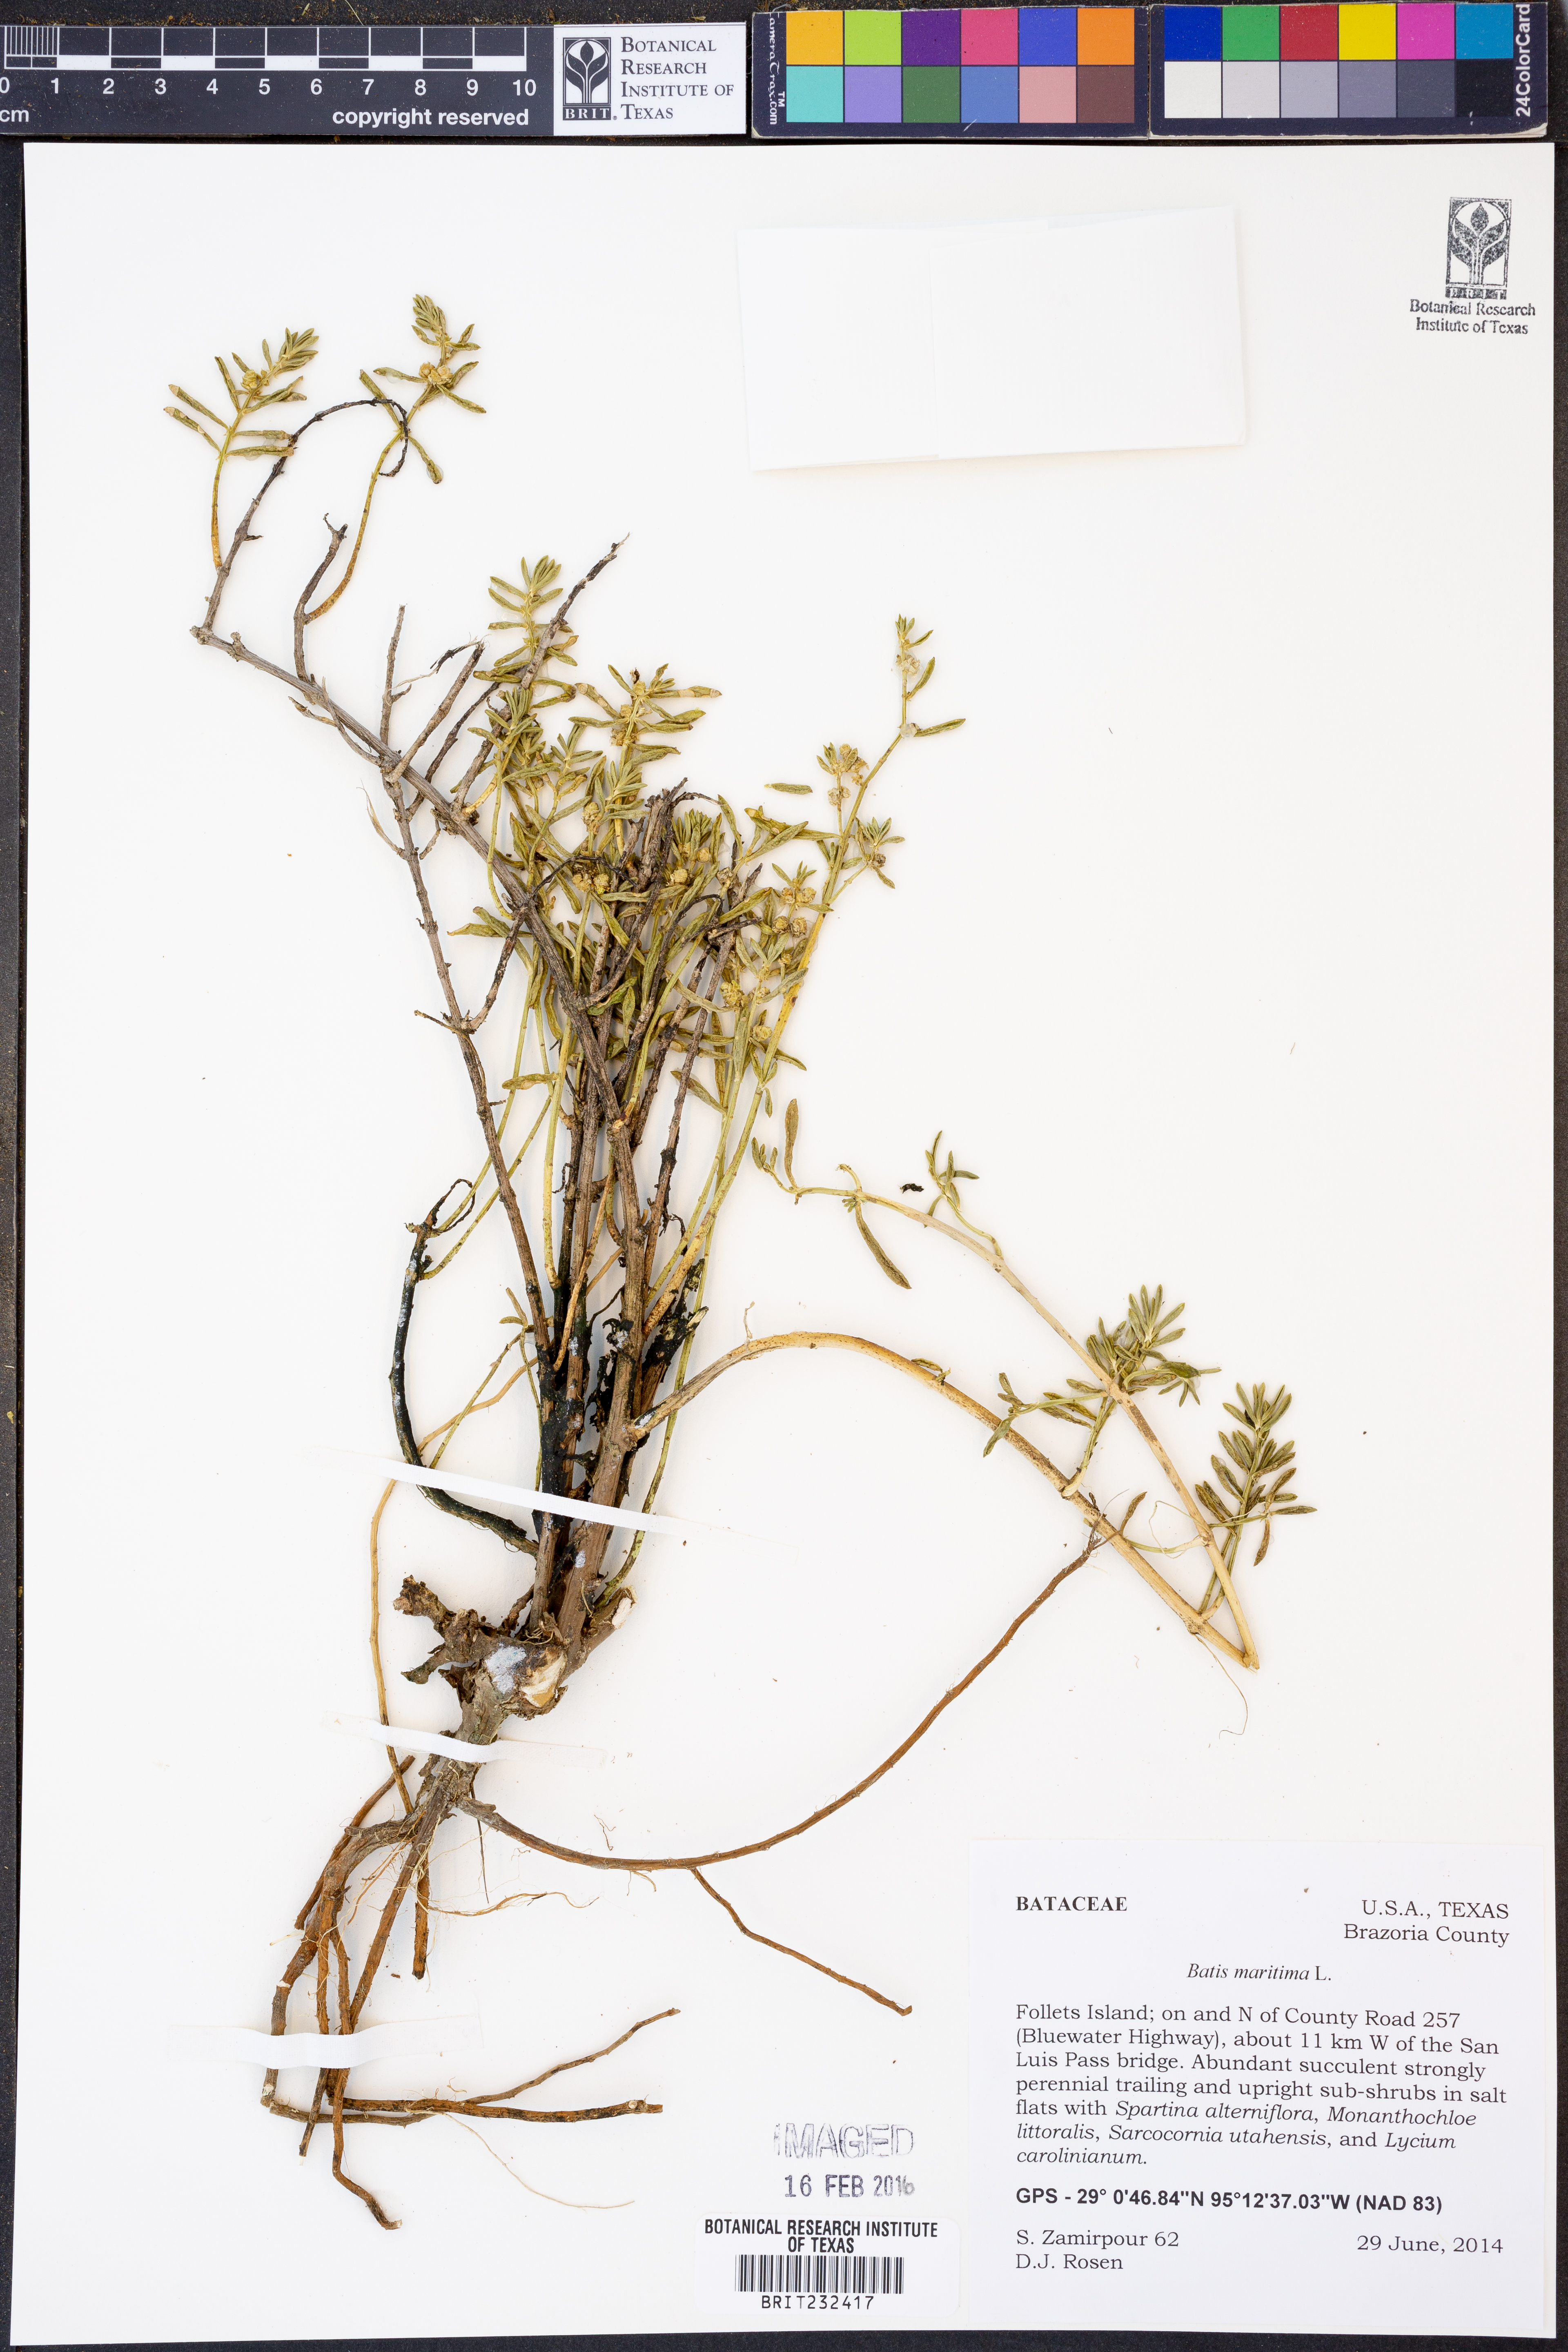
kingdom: Plantae
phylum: Tracheophyta
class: Magnoliopsida
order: Brassicales
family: Bataceae
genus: Batis
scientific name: Batis maritima
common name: Turtleweed
